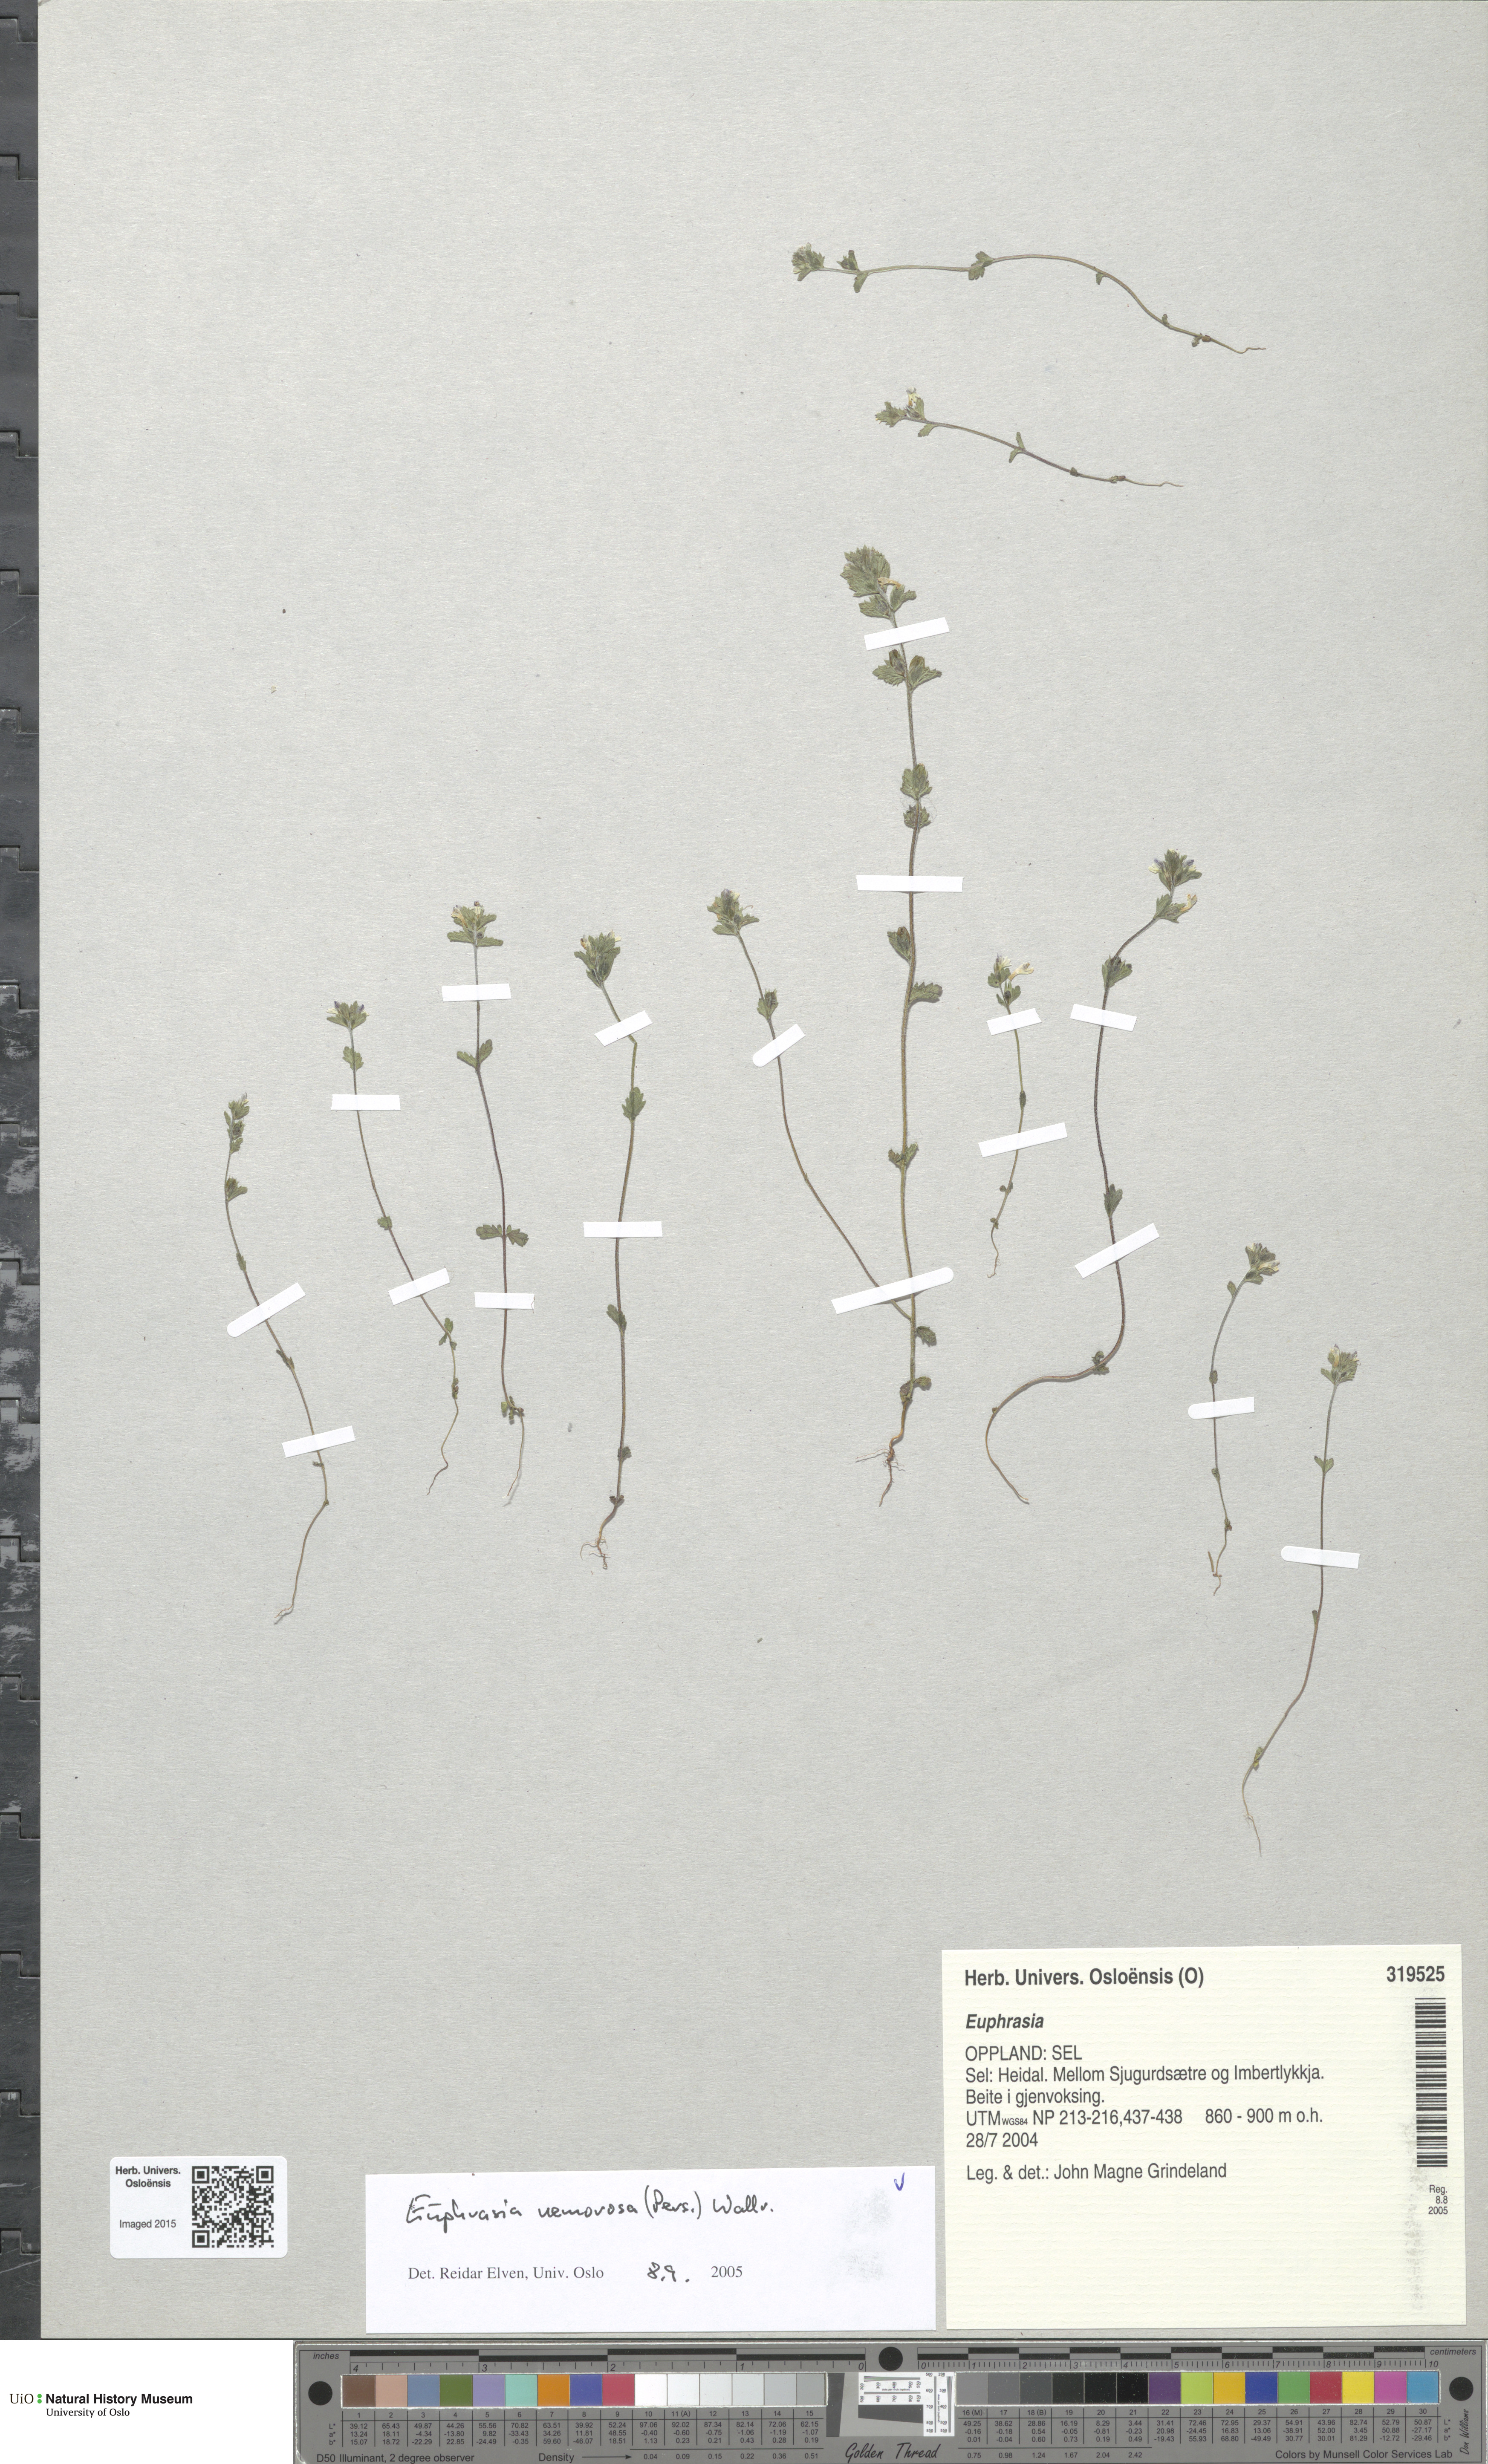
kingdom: Plantae
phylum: Tracheophyta
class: Magnoliopsida
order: Lamiales
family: Orobanchaceae
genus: Euphrasia
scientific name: Euphrasia nemorosa
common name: Common eyebright
